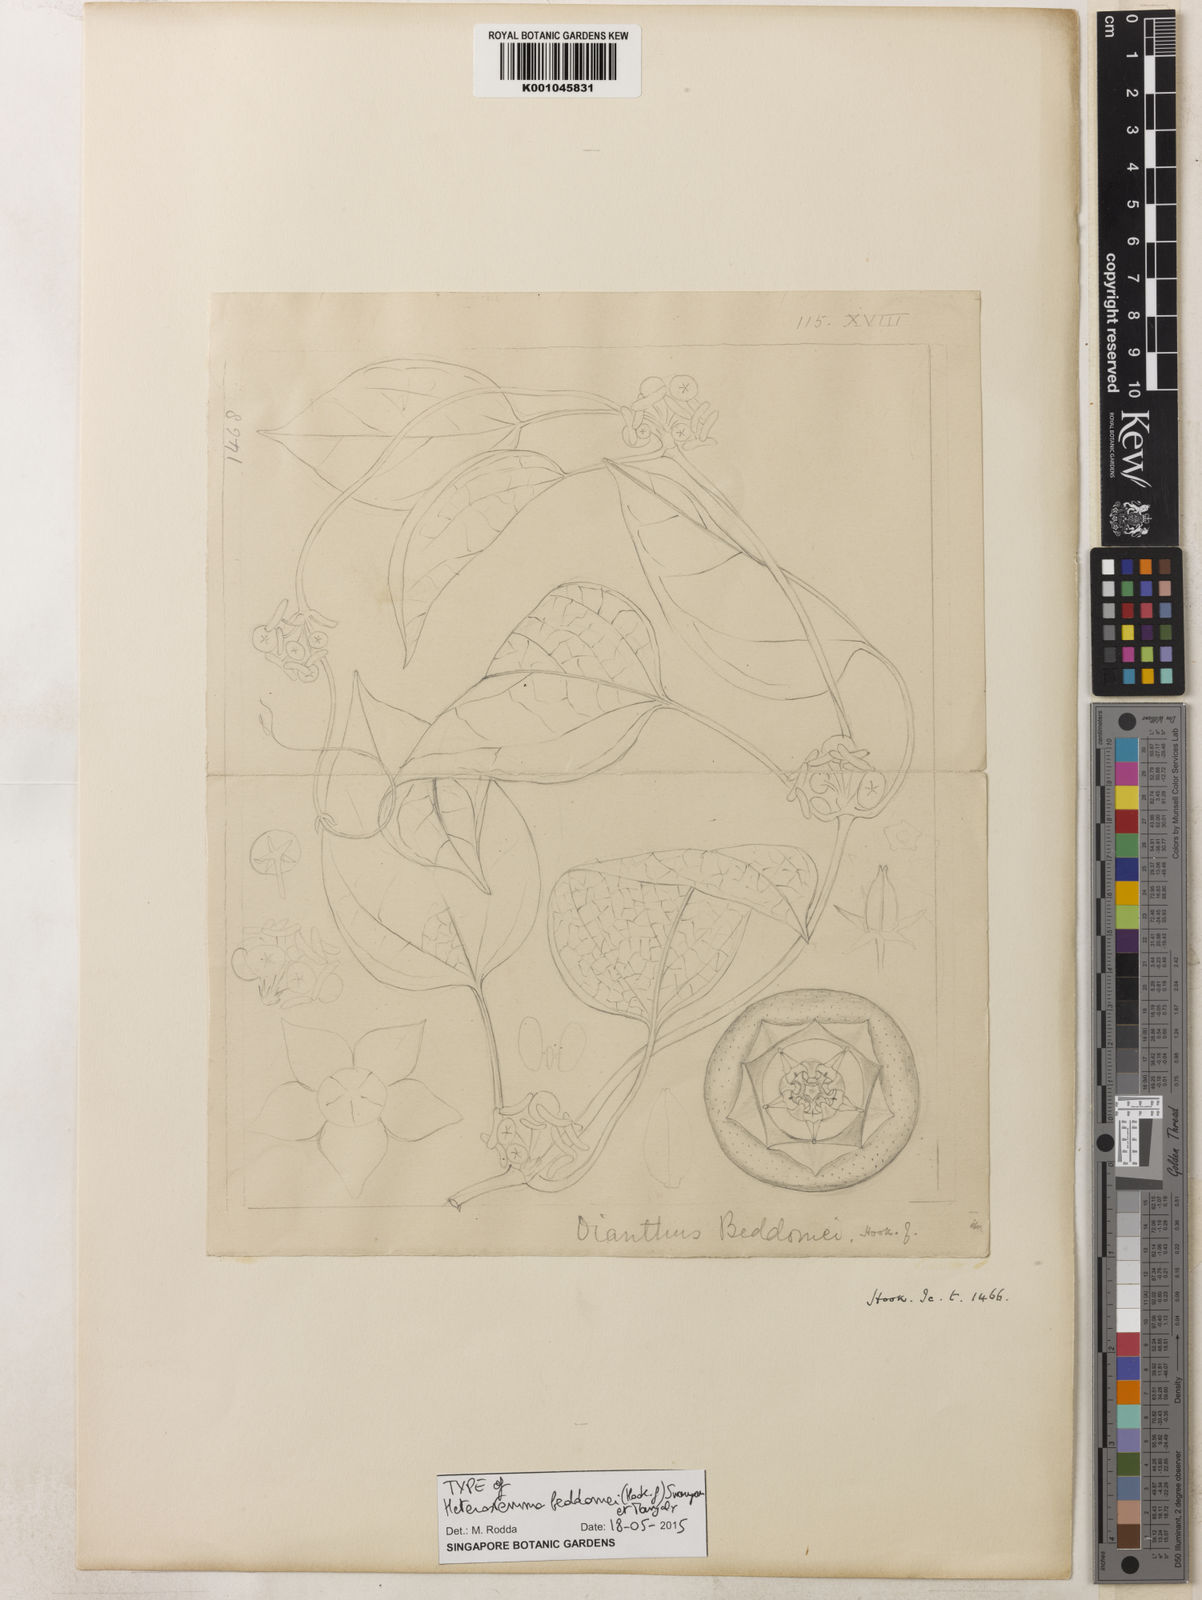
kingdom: Plantae
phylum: Tracheophyta
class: Magnoliopsida
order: Gentianales
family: Apocynaceae
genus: Heterostemma
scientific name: Heterostemma beddomei
